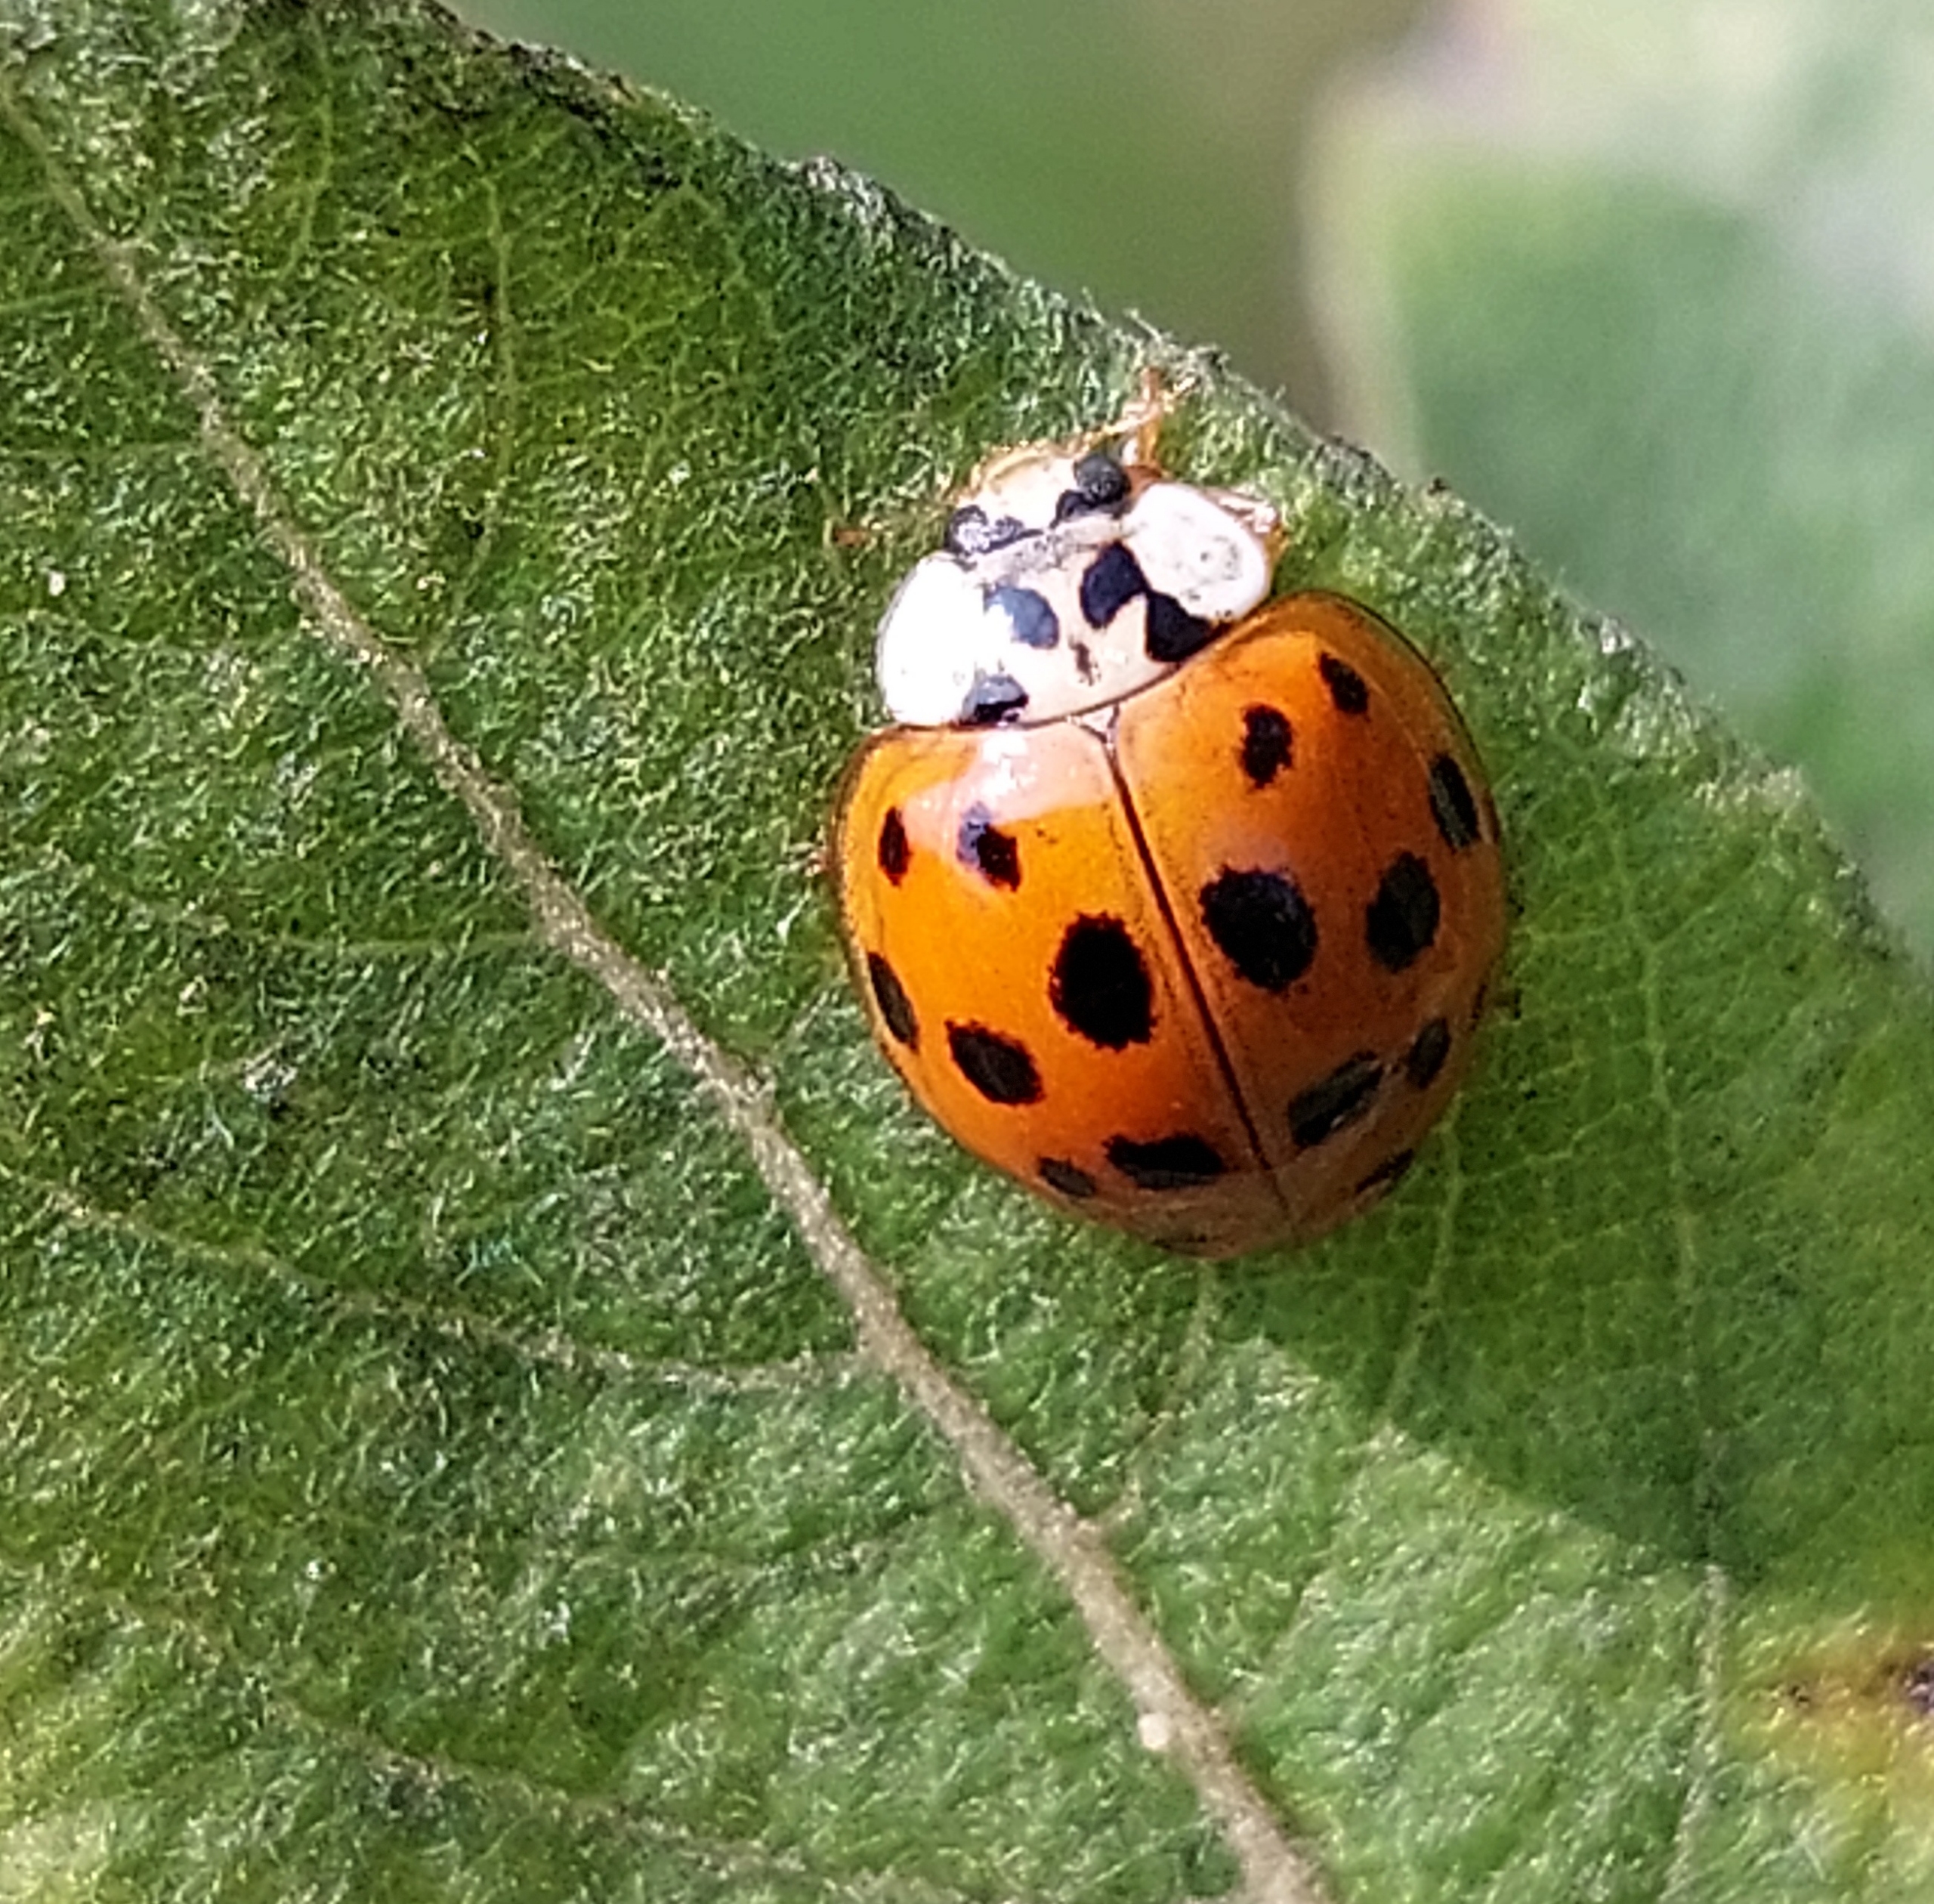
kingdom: Animalia
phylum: Arthropoda
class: Insecta
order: Coleoptera
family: Coccinellidae
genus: Harmonia
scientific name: Harmonia axyridis
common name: Harlekinmariehøne
